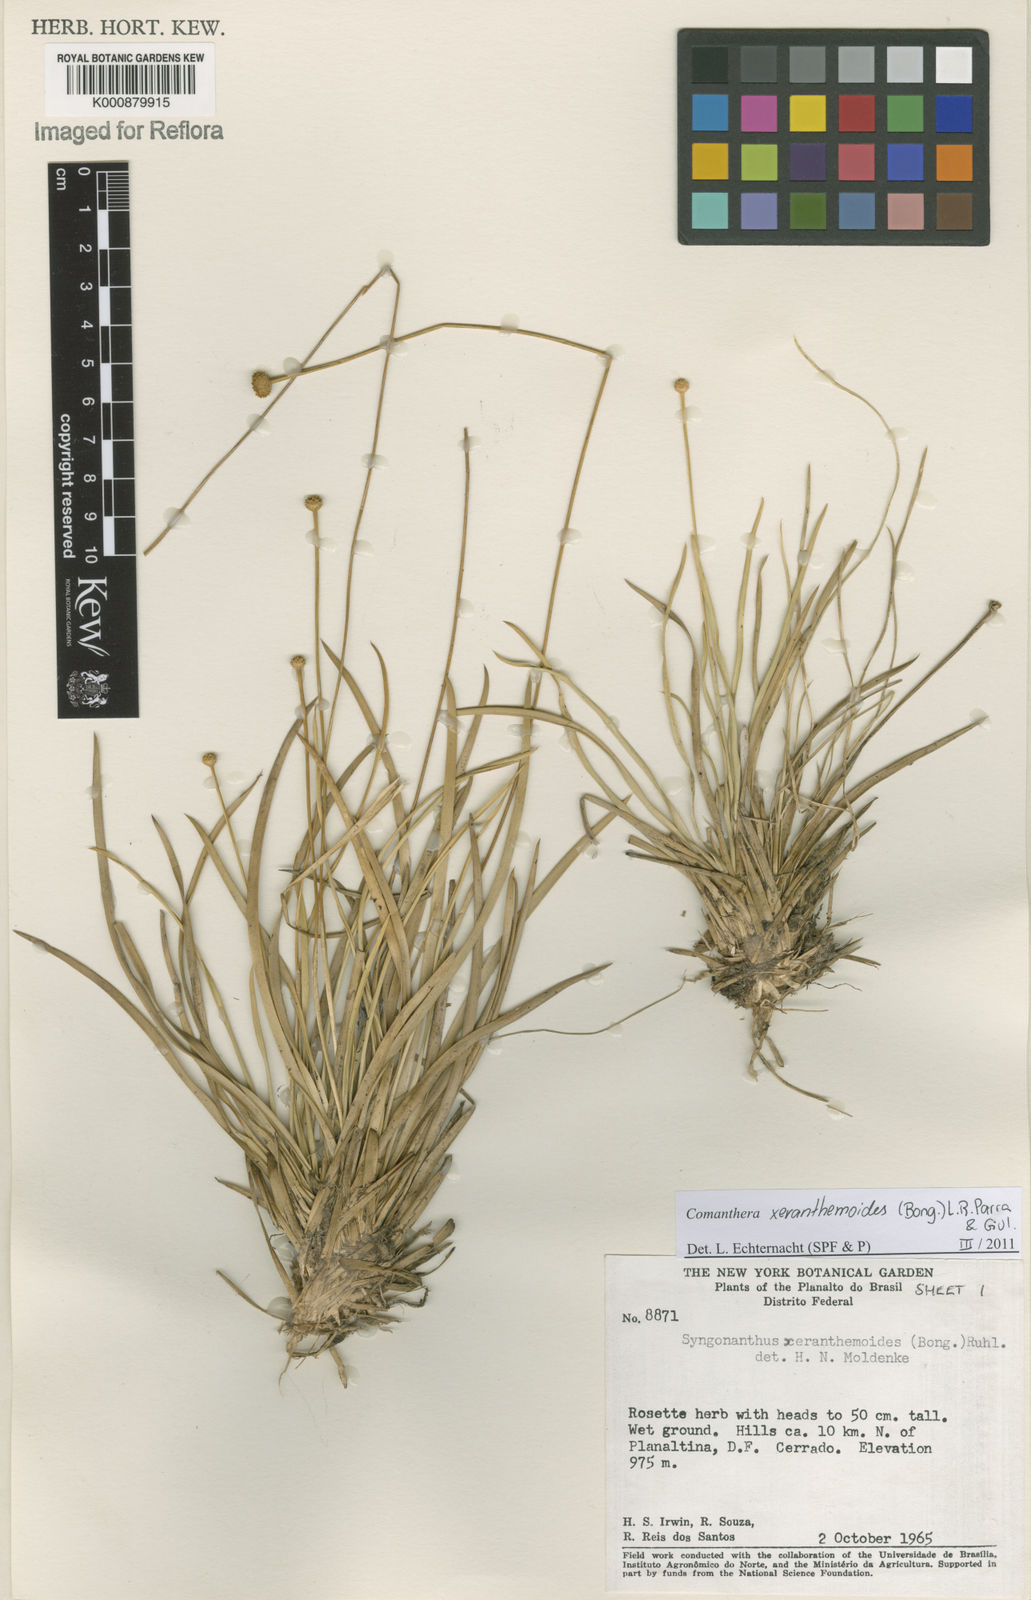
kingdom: Plantae
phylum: Tracheophyta
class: Liliopsida
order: Poales
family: Eriocaulaceae
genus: Comanthera
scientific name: Comanthera xeranthemoides
